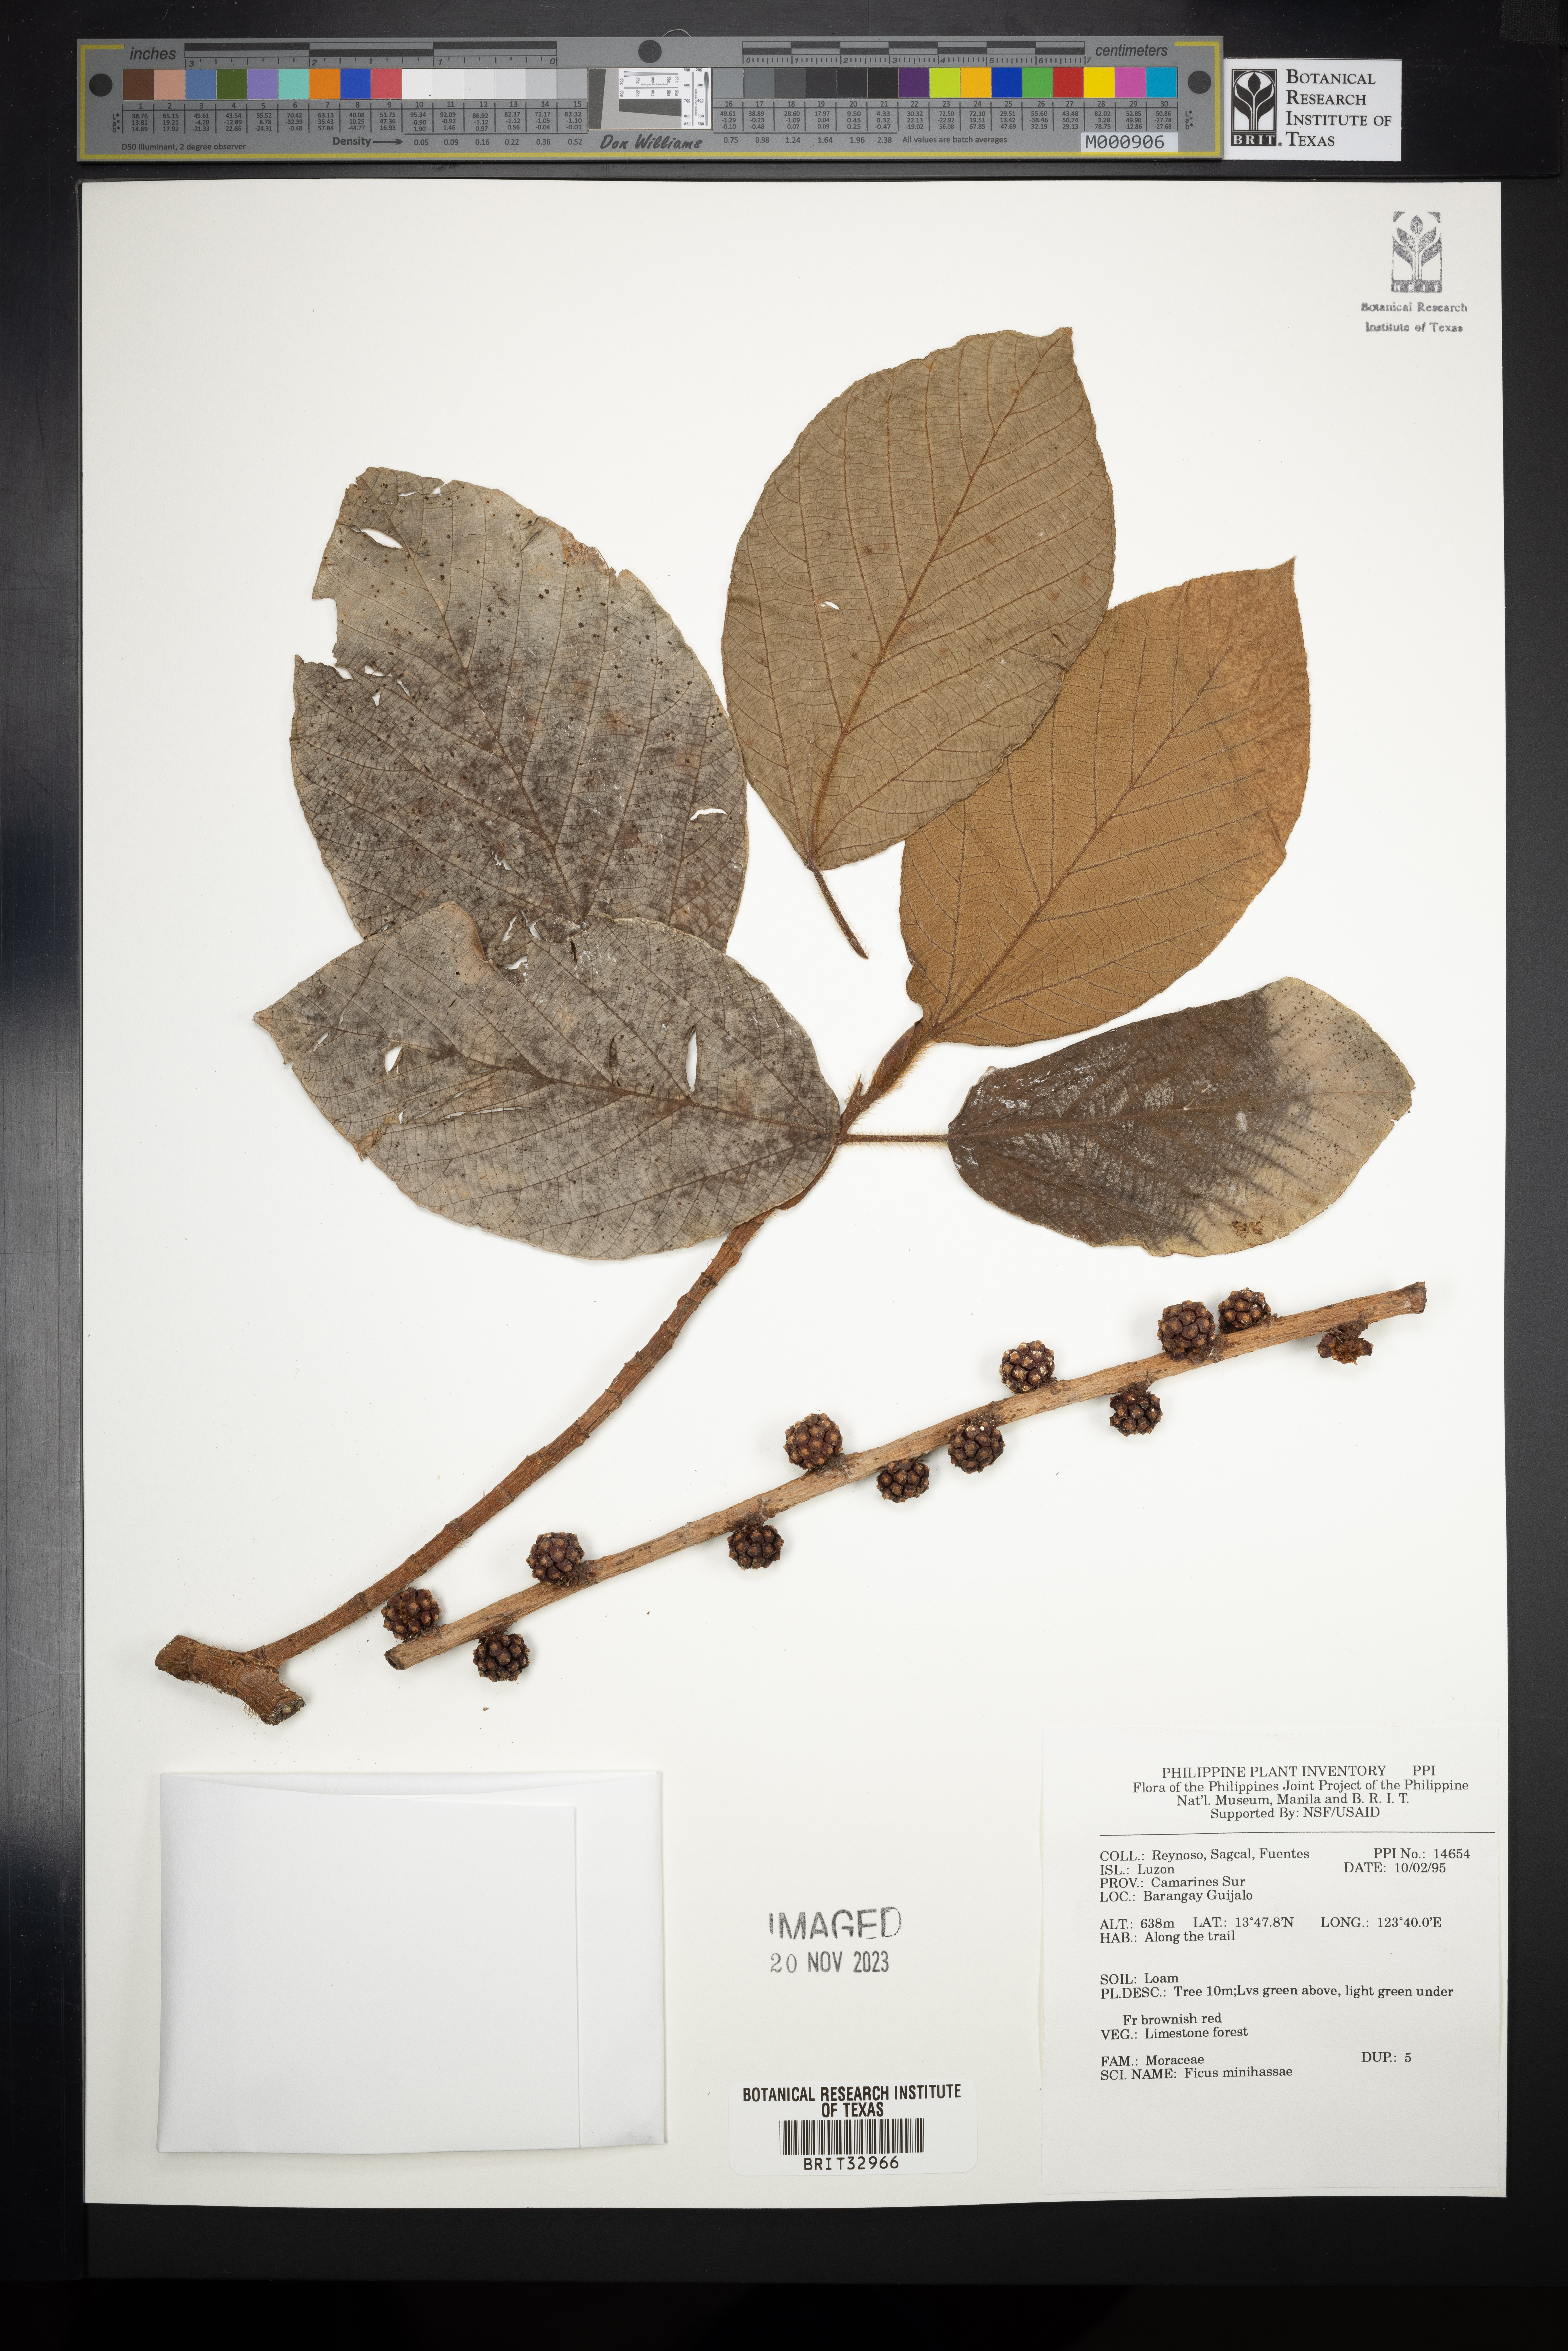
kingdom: Plantae
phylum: Tracheophyta
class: Magnoliopsida
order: Rosales
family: Moraceae
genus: Ficus
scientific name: Ficus minahassae
